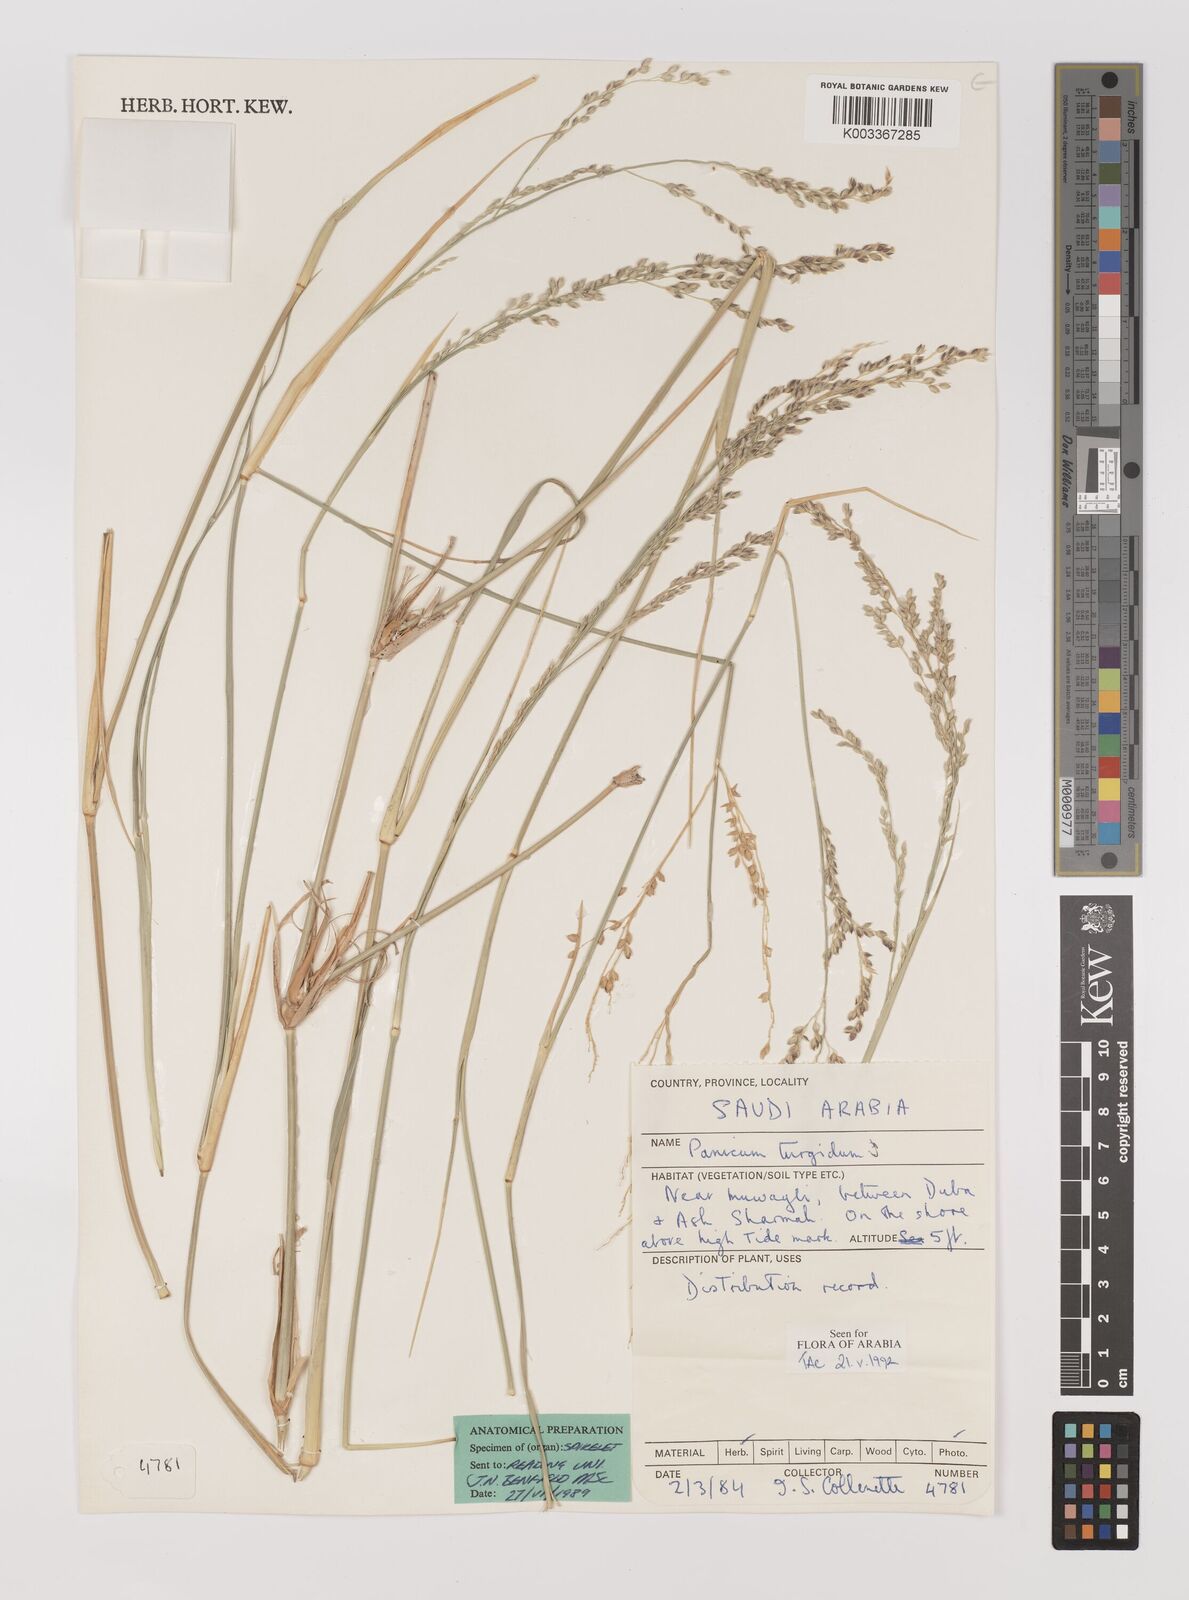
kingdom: Plantae
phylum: Tracheophyta
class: Liliopsida
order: Poales
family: Poaceae
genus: Panicum
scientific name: Panicum turgidum
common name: Desert grass
